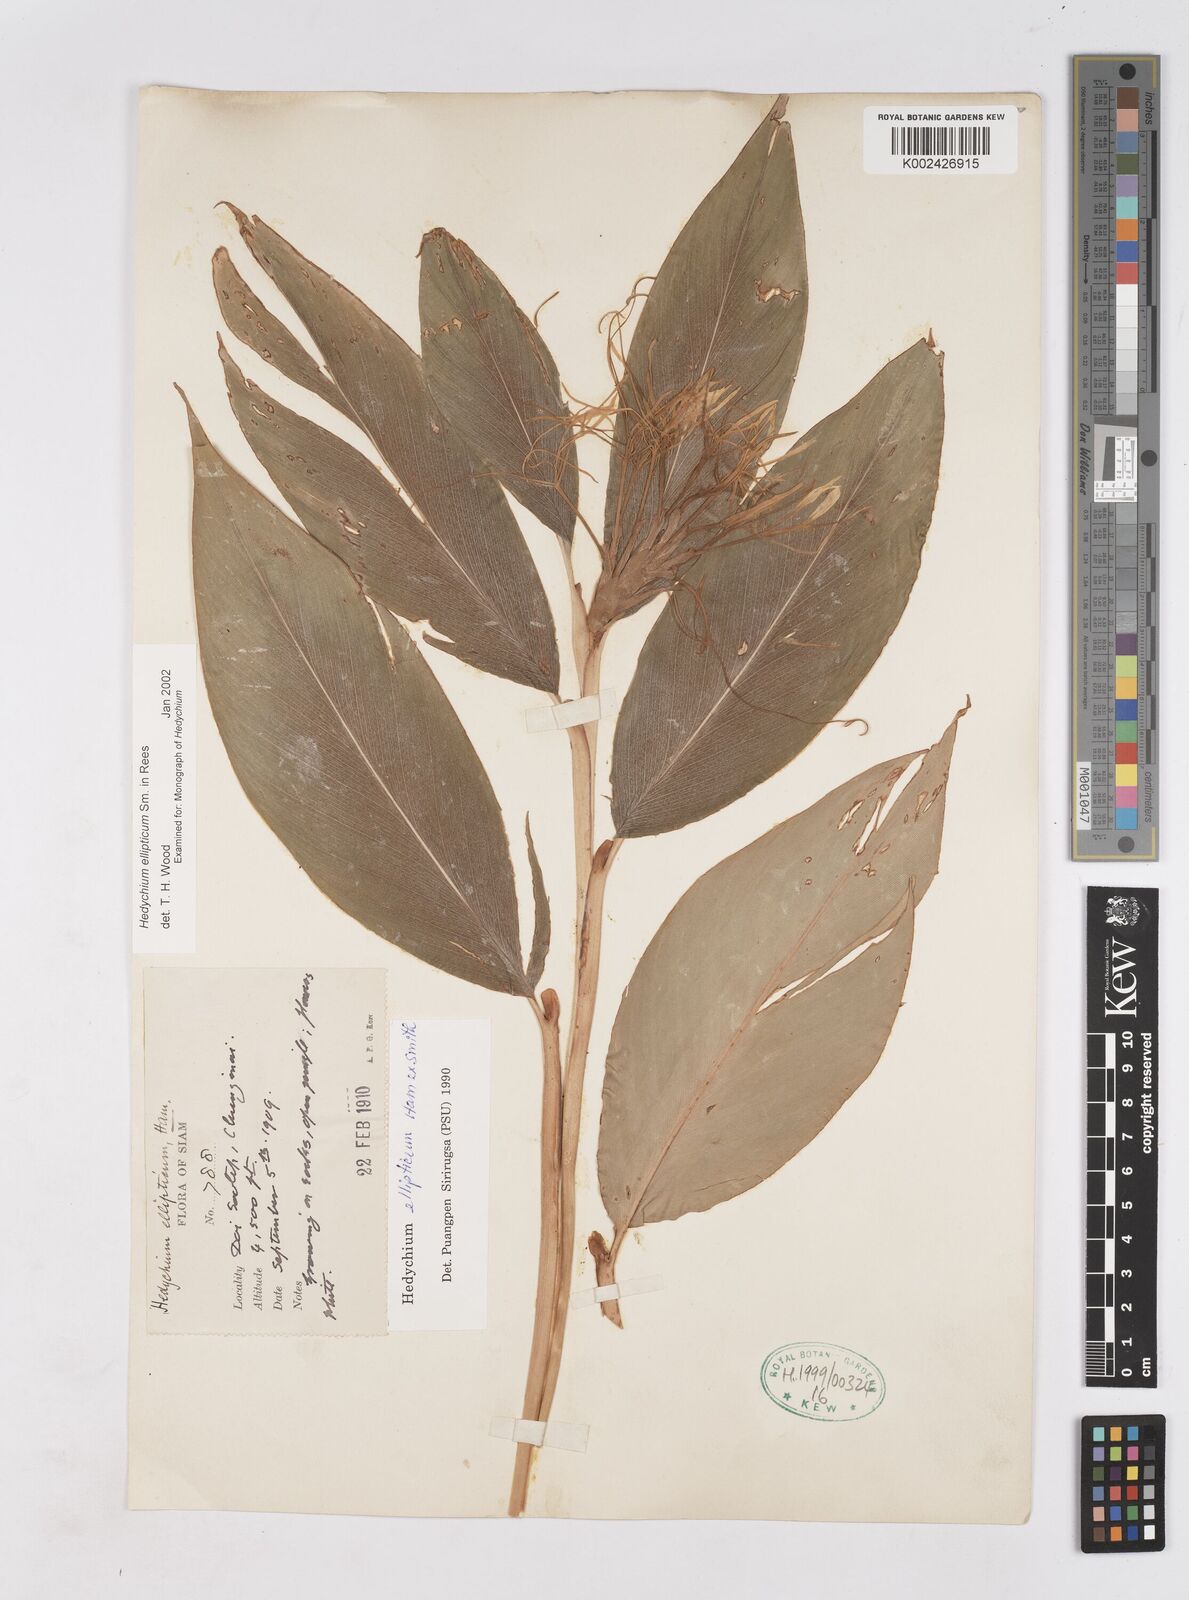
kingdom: Plantae
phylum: Tracheophyta
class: Liliopsida
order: Zingiberales
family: Zingiberaceae
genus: Hedychium
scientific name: Hedychium ellipticum
